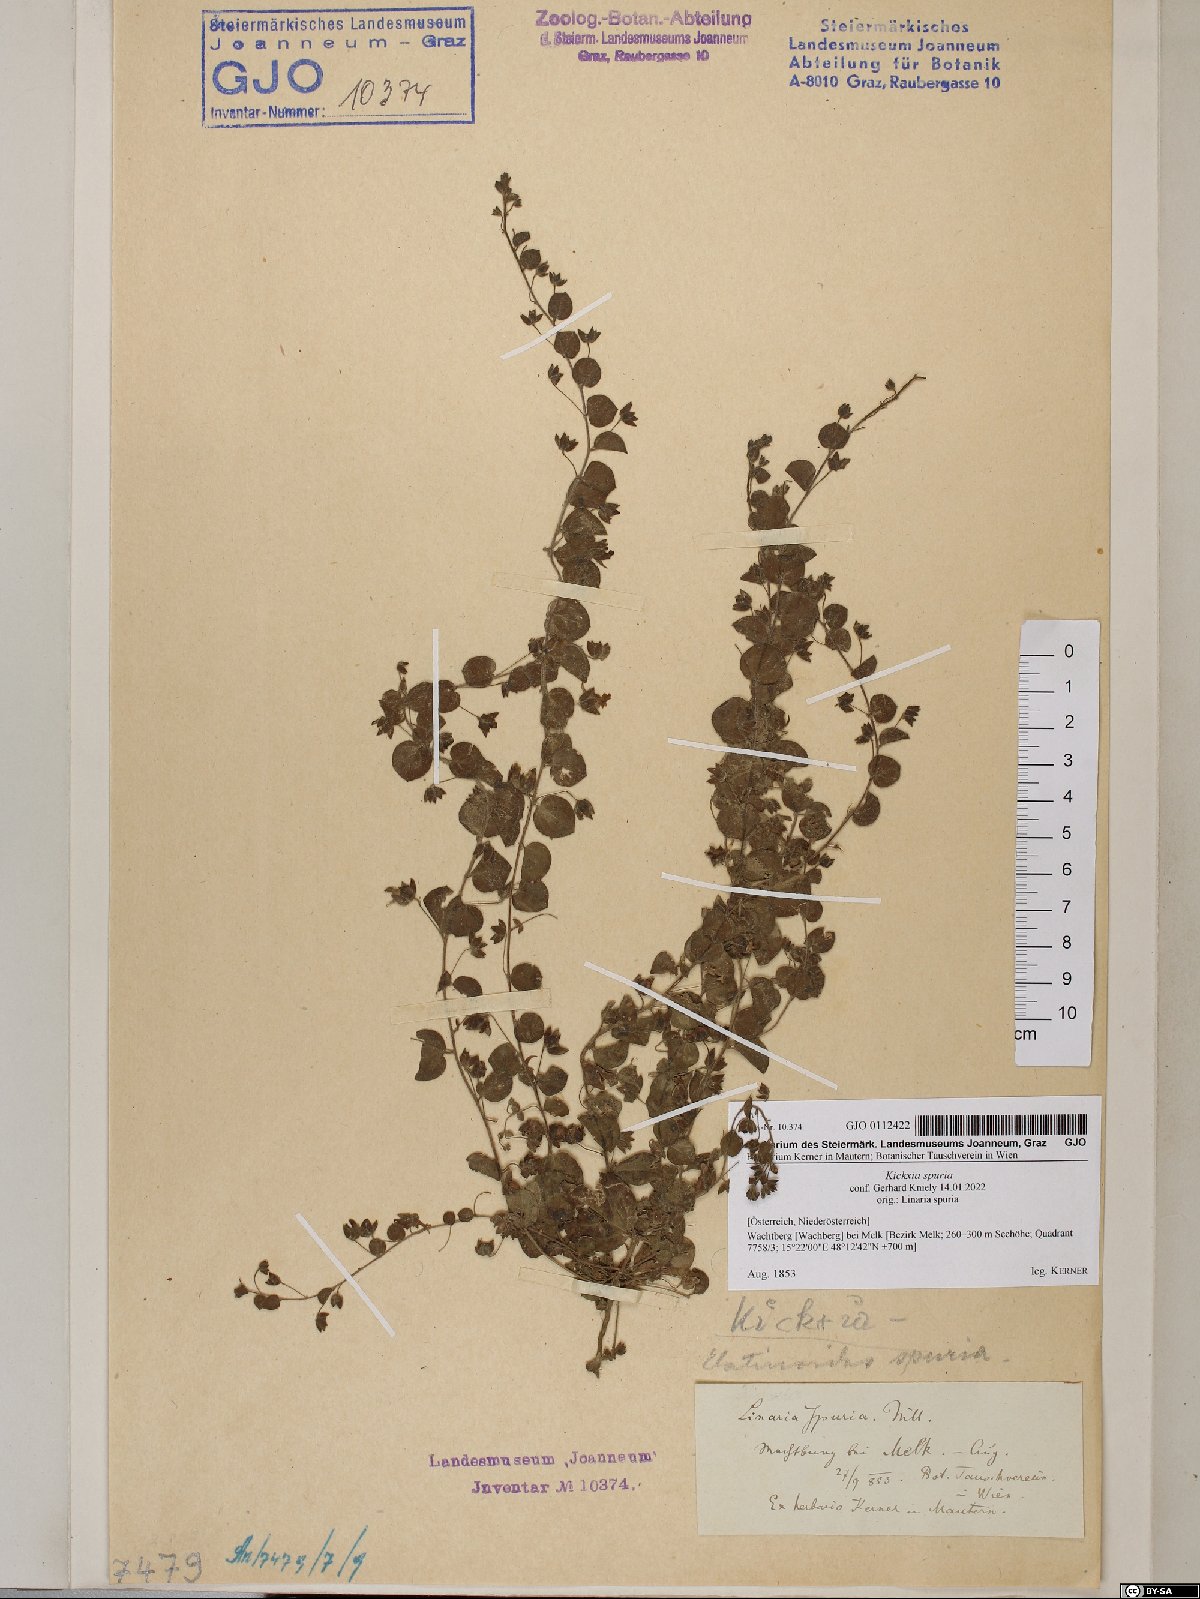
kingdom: Plantae
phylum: Tracheophyta
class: Magnoliopsida
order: Lamiales
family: Plantaginaceae
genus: Kickxia
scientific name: Kickxia spuria
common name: Round-leaved fluellen
